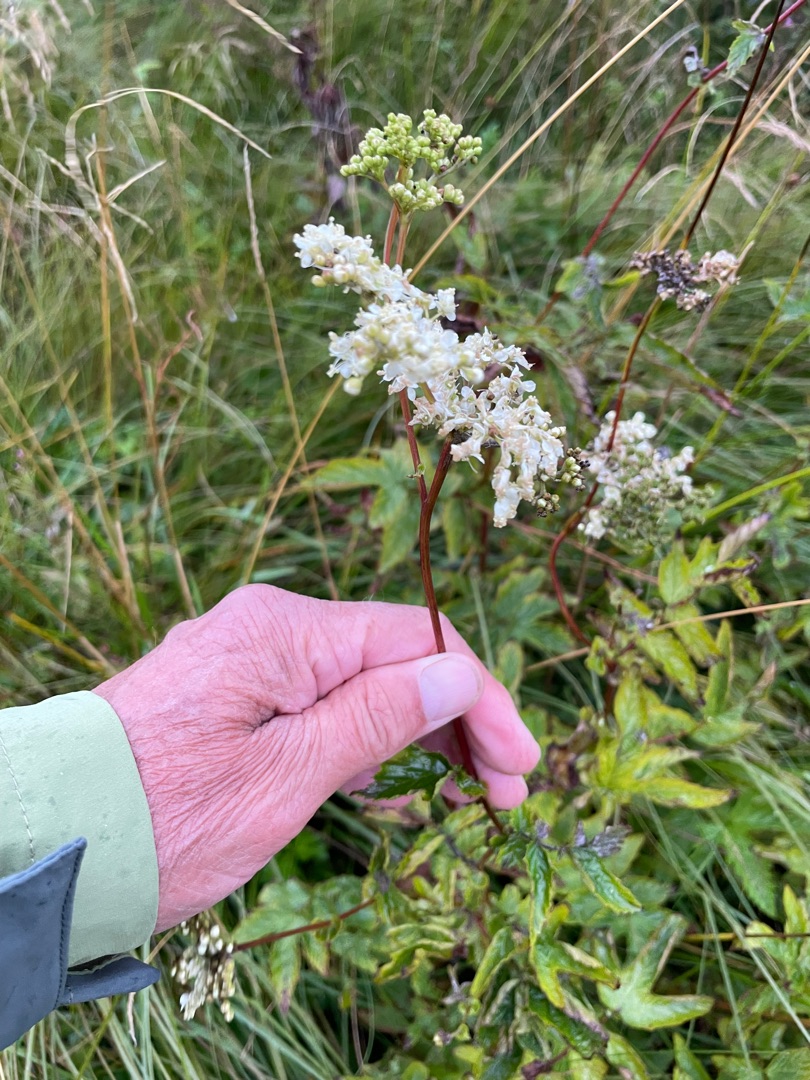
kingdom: Plantae
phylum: Tracheophyta
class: Magnoliopsida
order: Rosales
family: Rosaceae
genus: Filipendula
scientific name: Filipendula ulmaria
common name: Almindelig mjødurt
